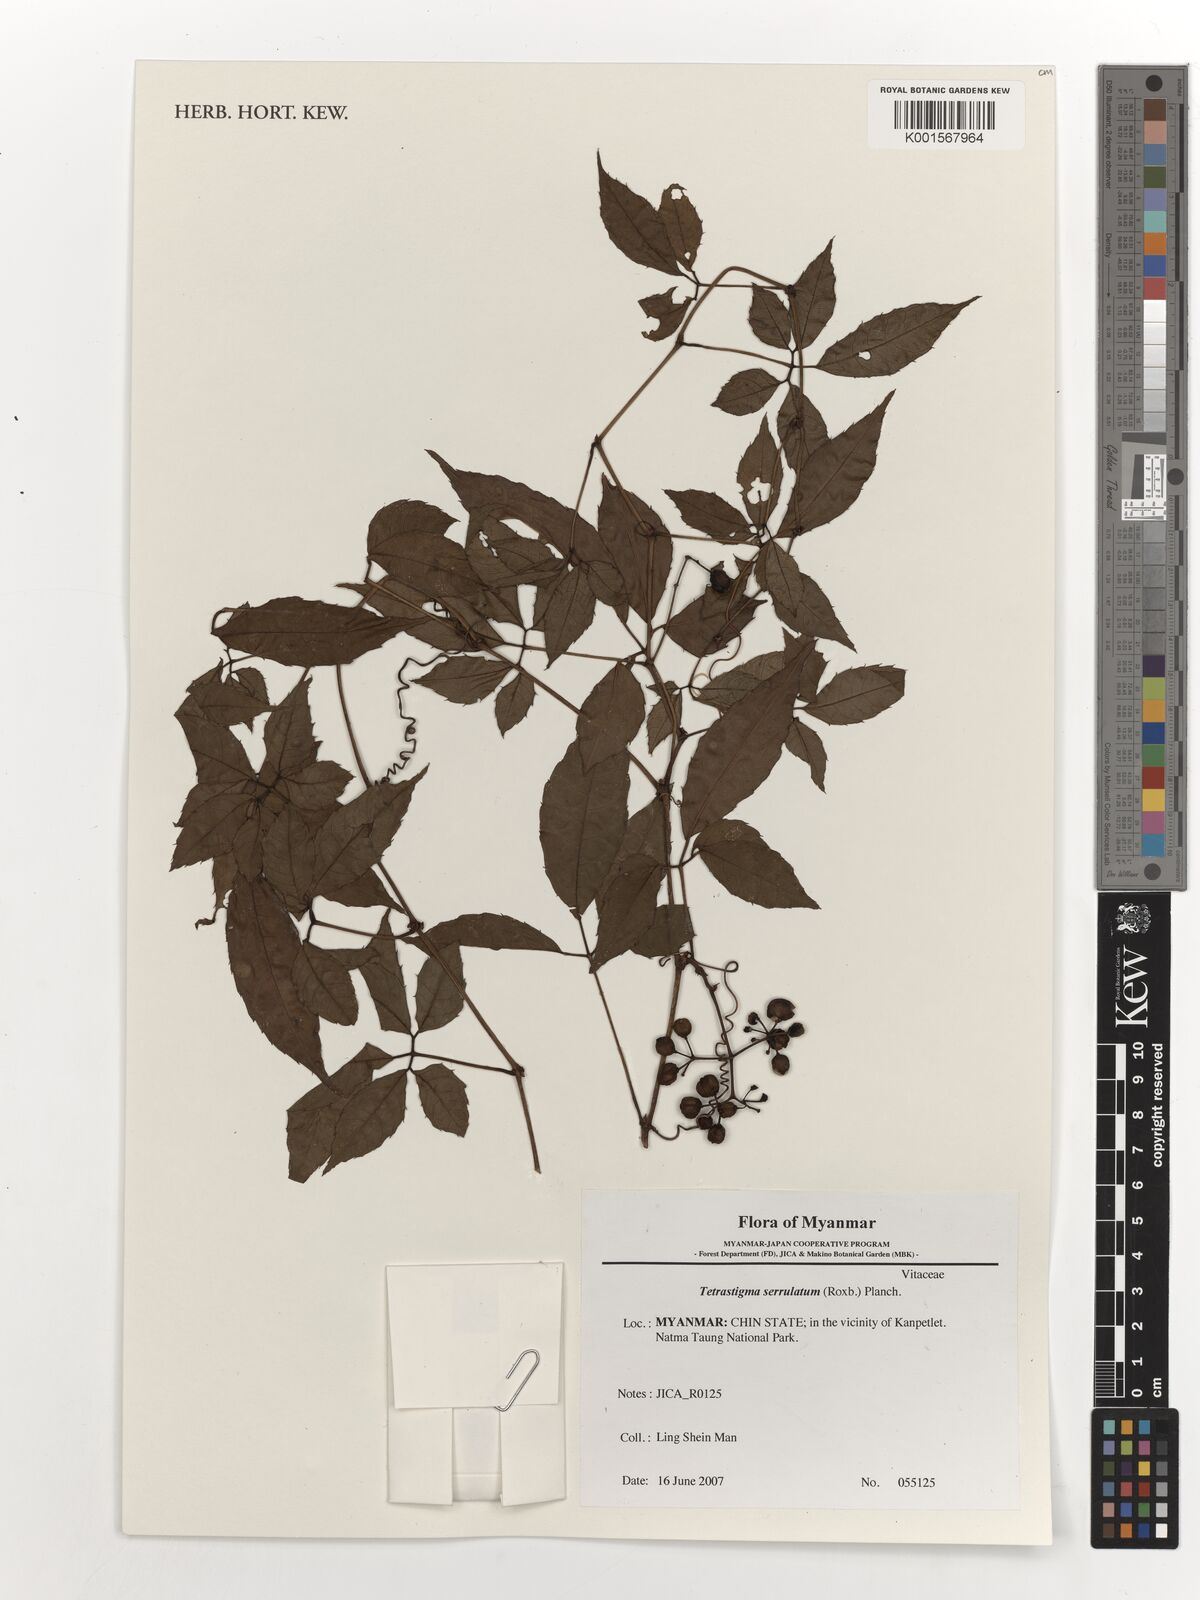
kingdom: Plantae
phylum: Tracheophyta
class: Magnoliopsida
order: Vitales
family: Vitaceae
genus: Tetrastigma
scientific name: Tetrastigma serrulatum
